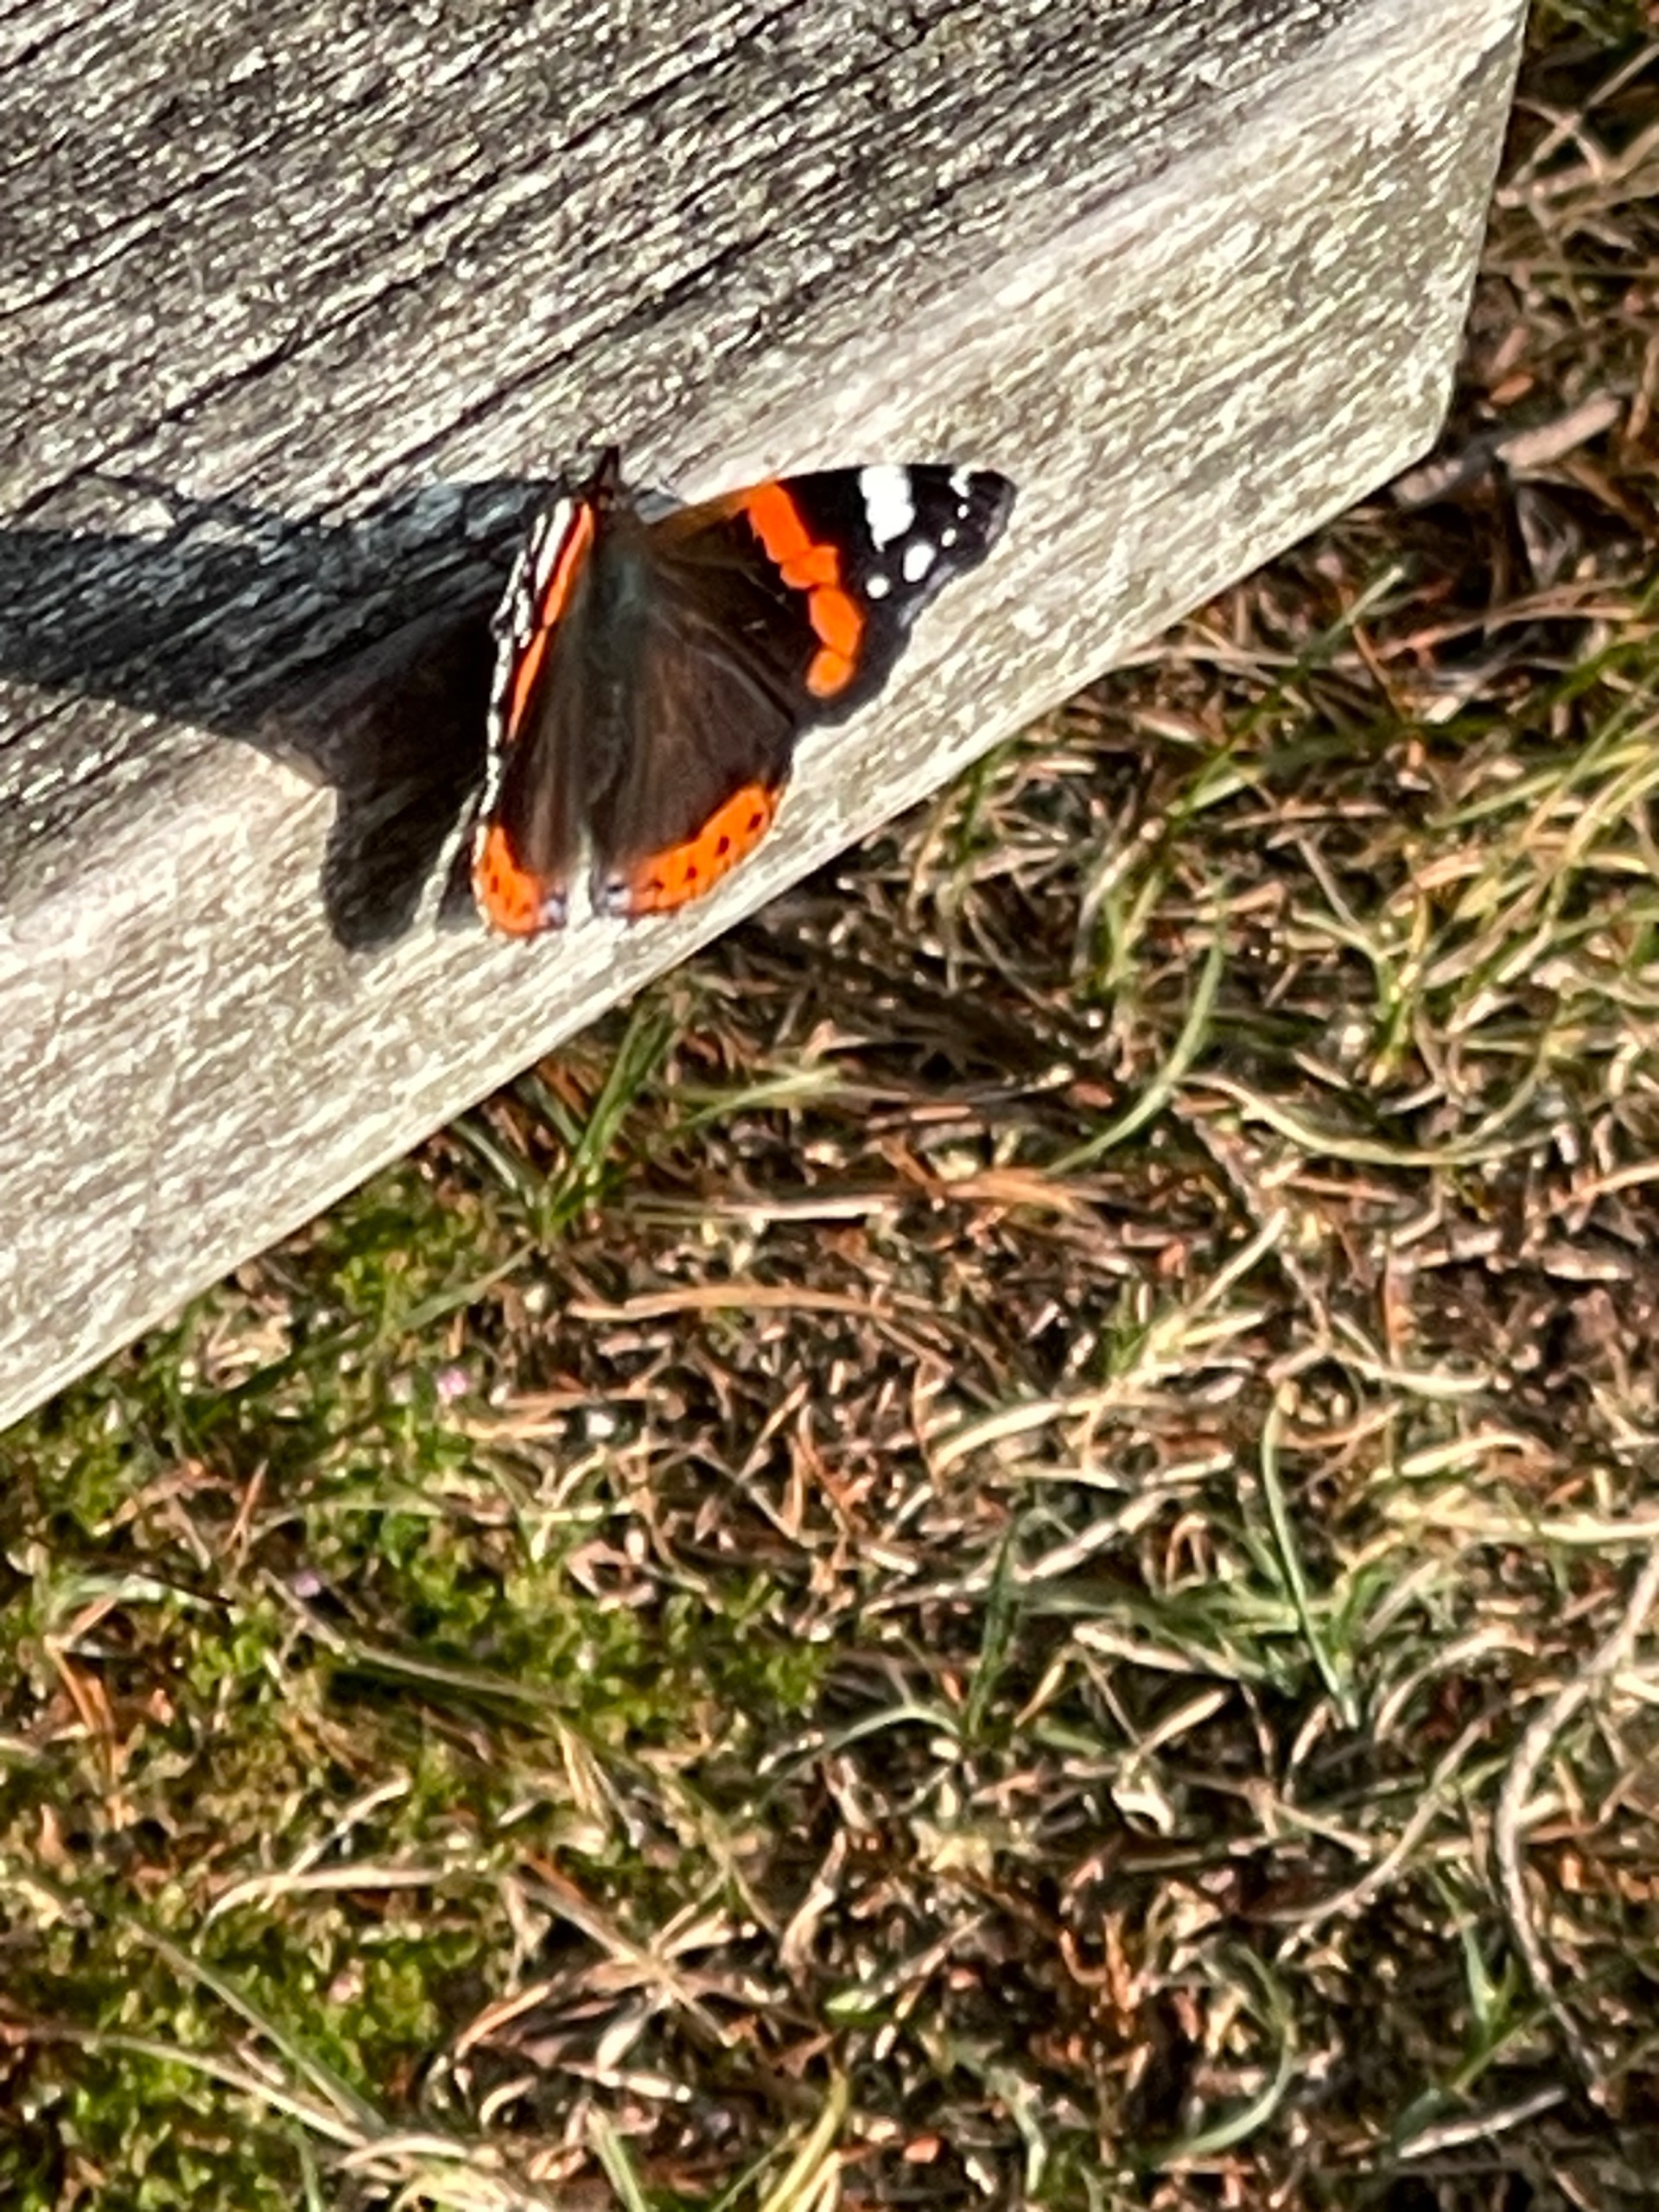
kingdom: Animalia
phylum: Arthropoda
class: Insecta
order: Lepidoptera
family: Nymphalidae
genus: Vanessa
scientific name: Vanessa atalanta
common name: Admiral
